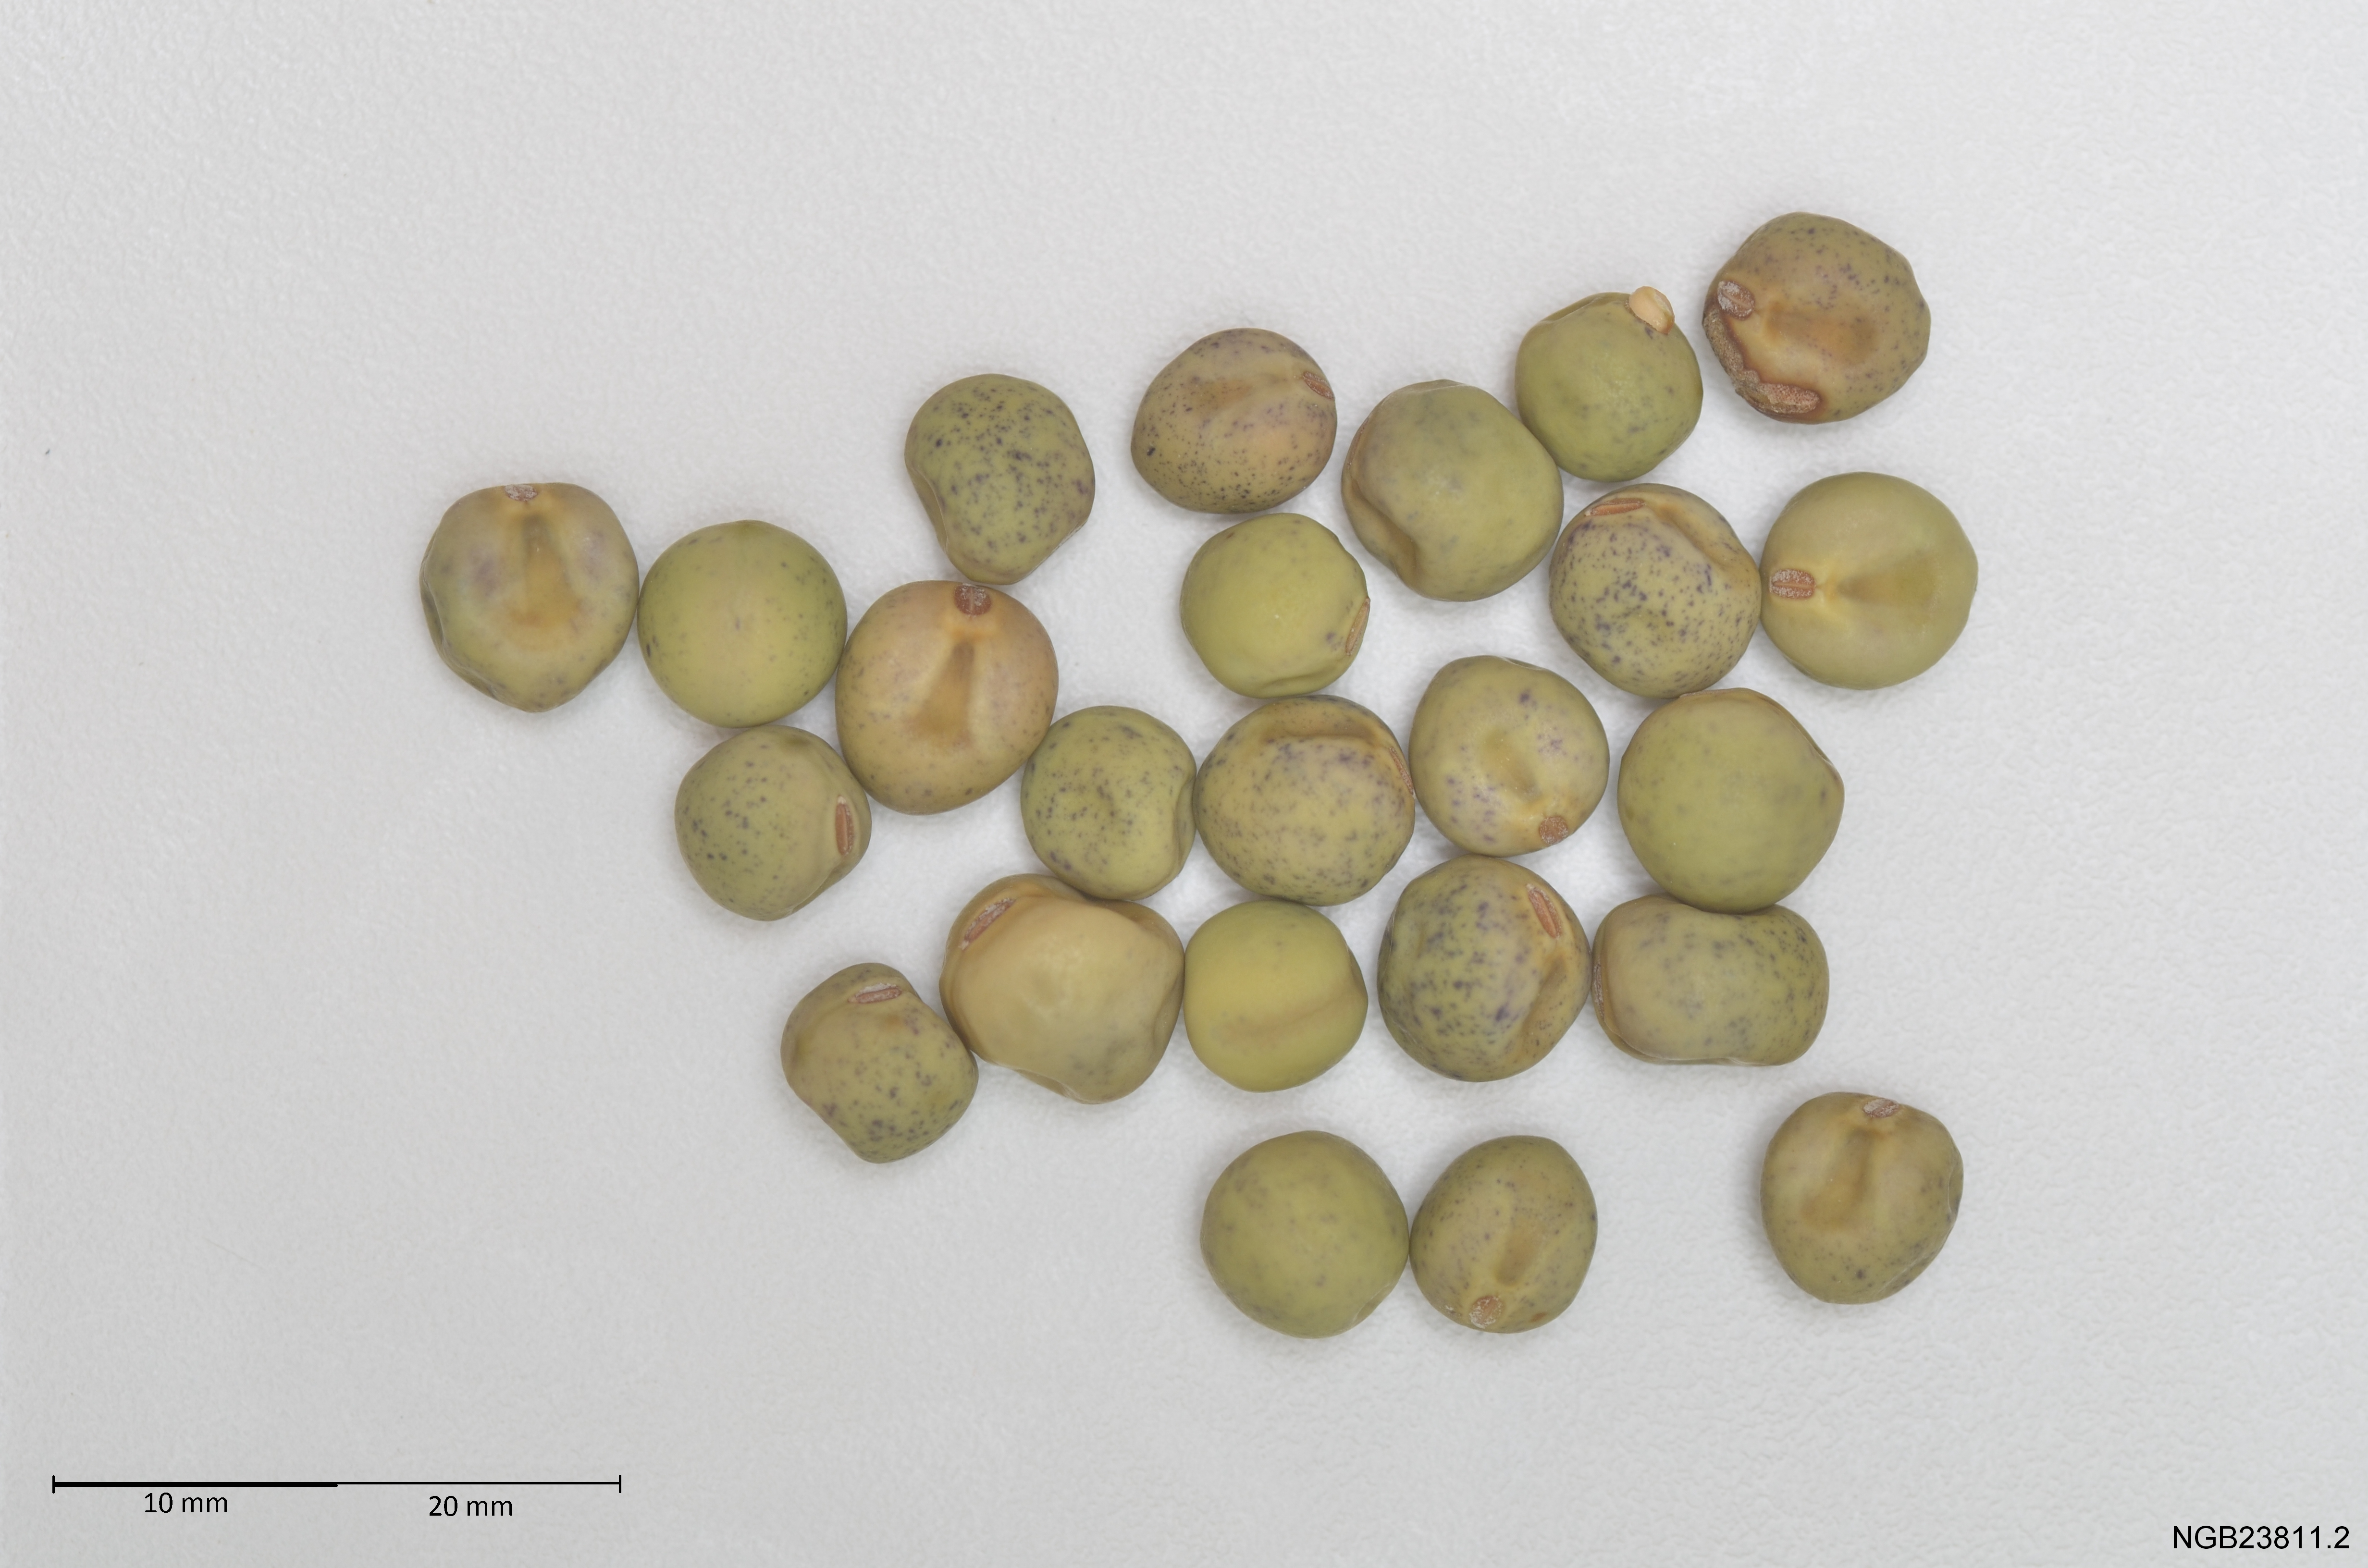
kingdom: Plantae
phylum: Tracheophyta
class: Magnoliopsida
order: Fabales
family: Fabaceae
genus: Lathyrus
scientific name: Lathyrus oleraceus
